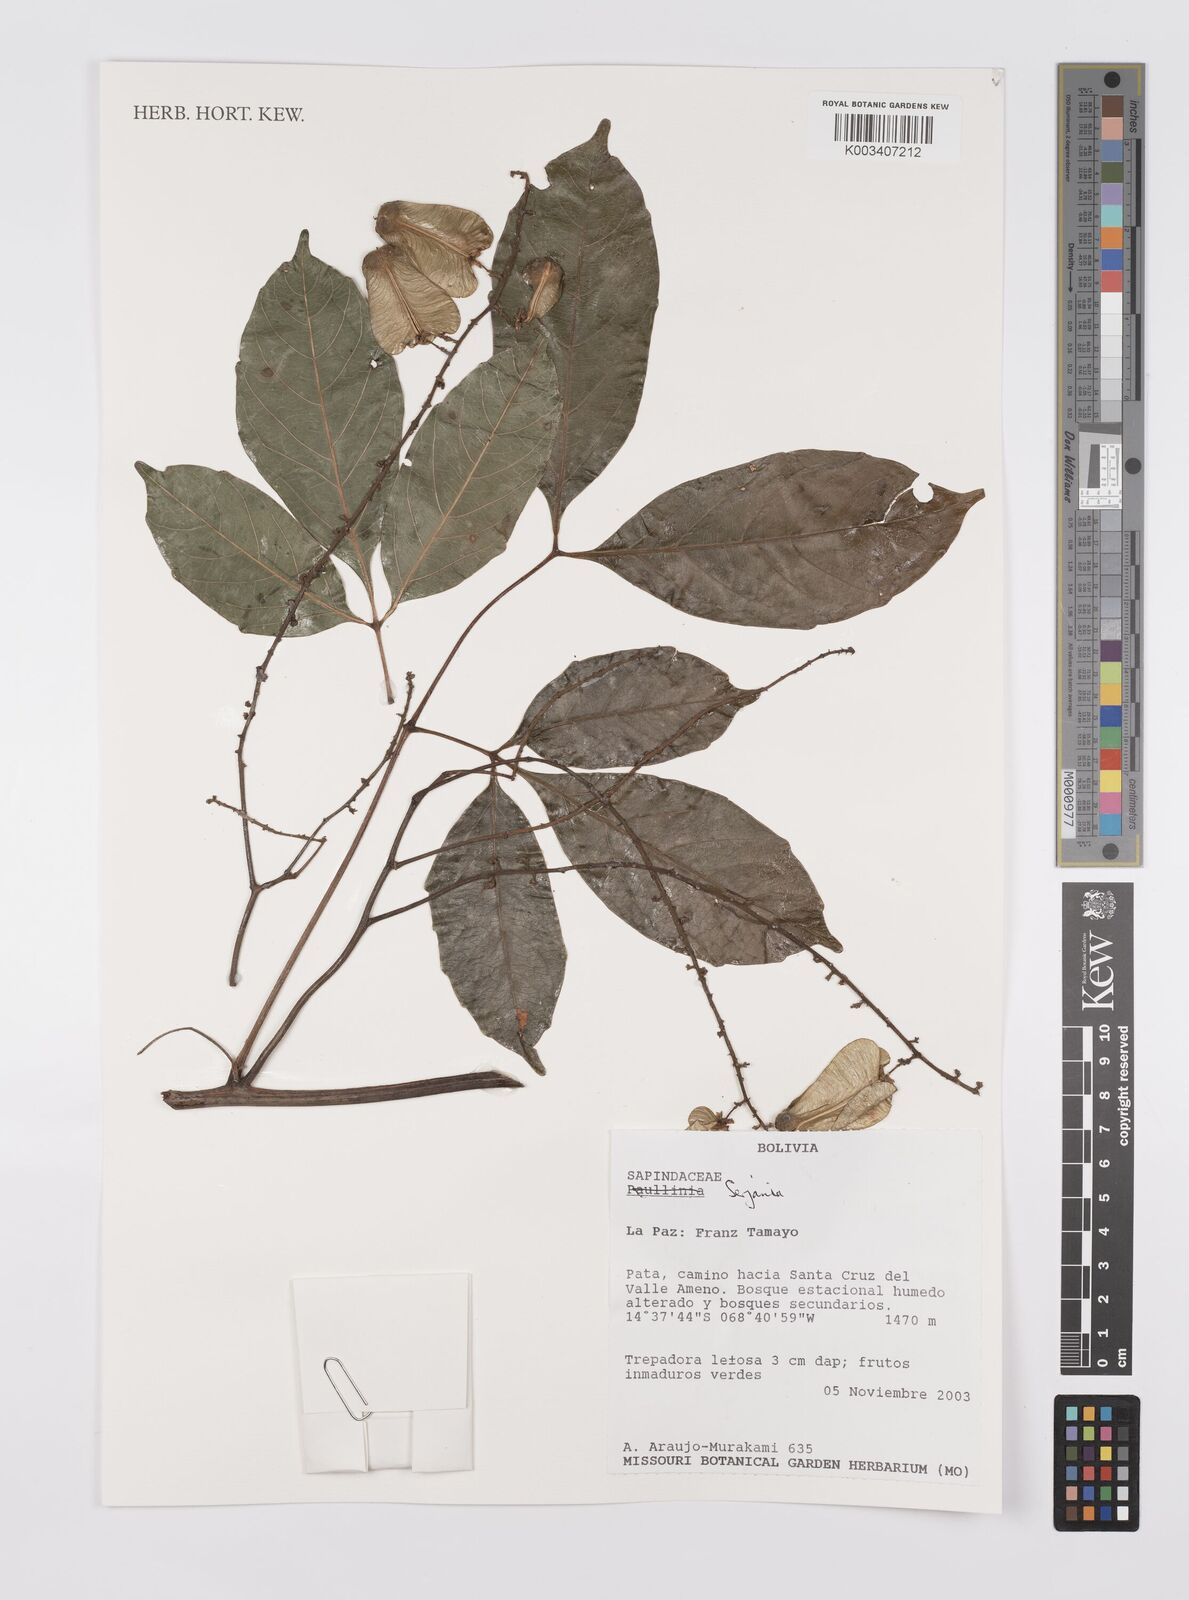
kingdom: Plantae
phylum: Tracheophyta
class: Magnoliopsida
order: Sapindales
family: Sapindaceae
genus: Serjania
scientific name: Serjania
